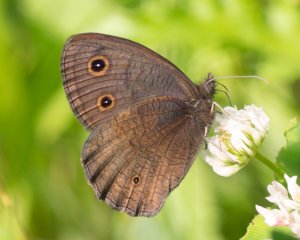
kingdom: Animalia
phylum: Arthropoda
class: Insecta
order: Lepidoptera
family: Nymphalidae
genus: Cercyonis
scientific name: Cercyonis pegala
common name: Common Wood-Nymph
